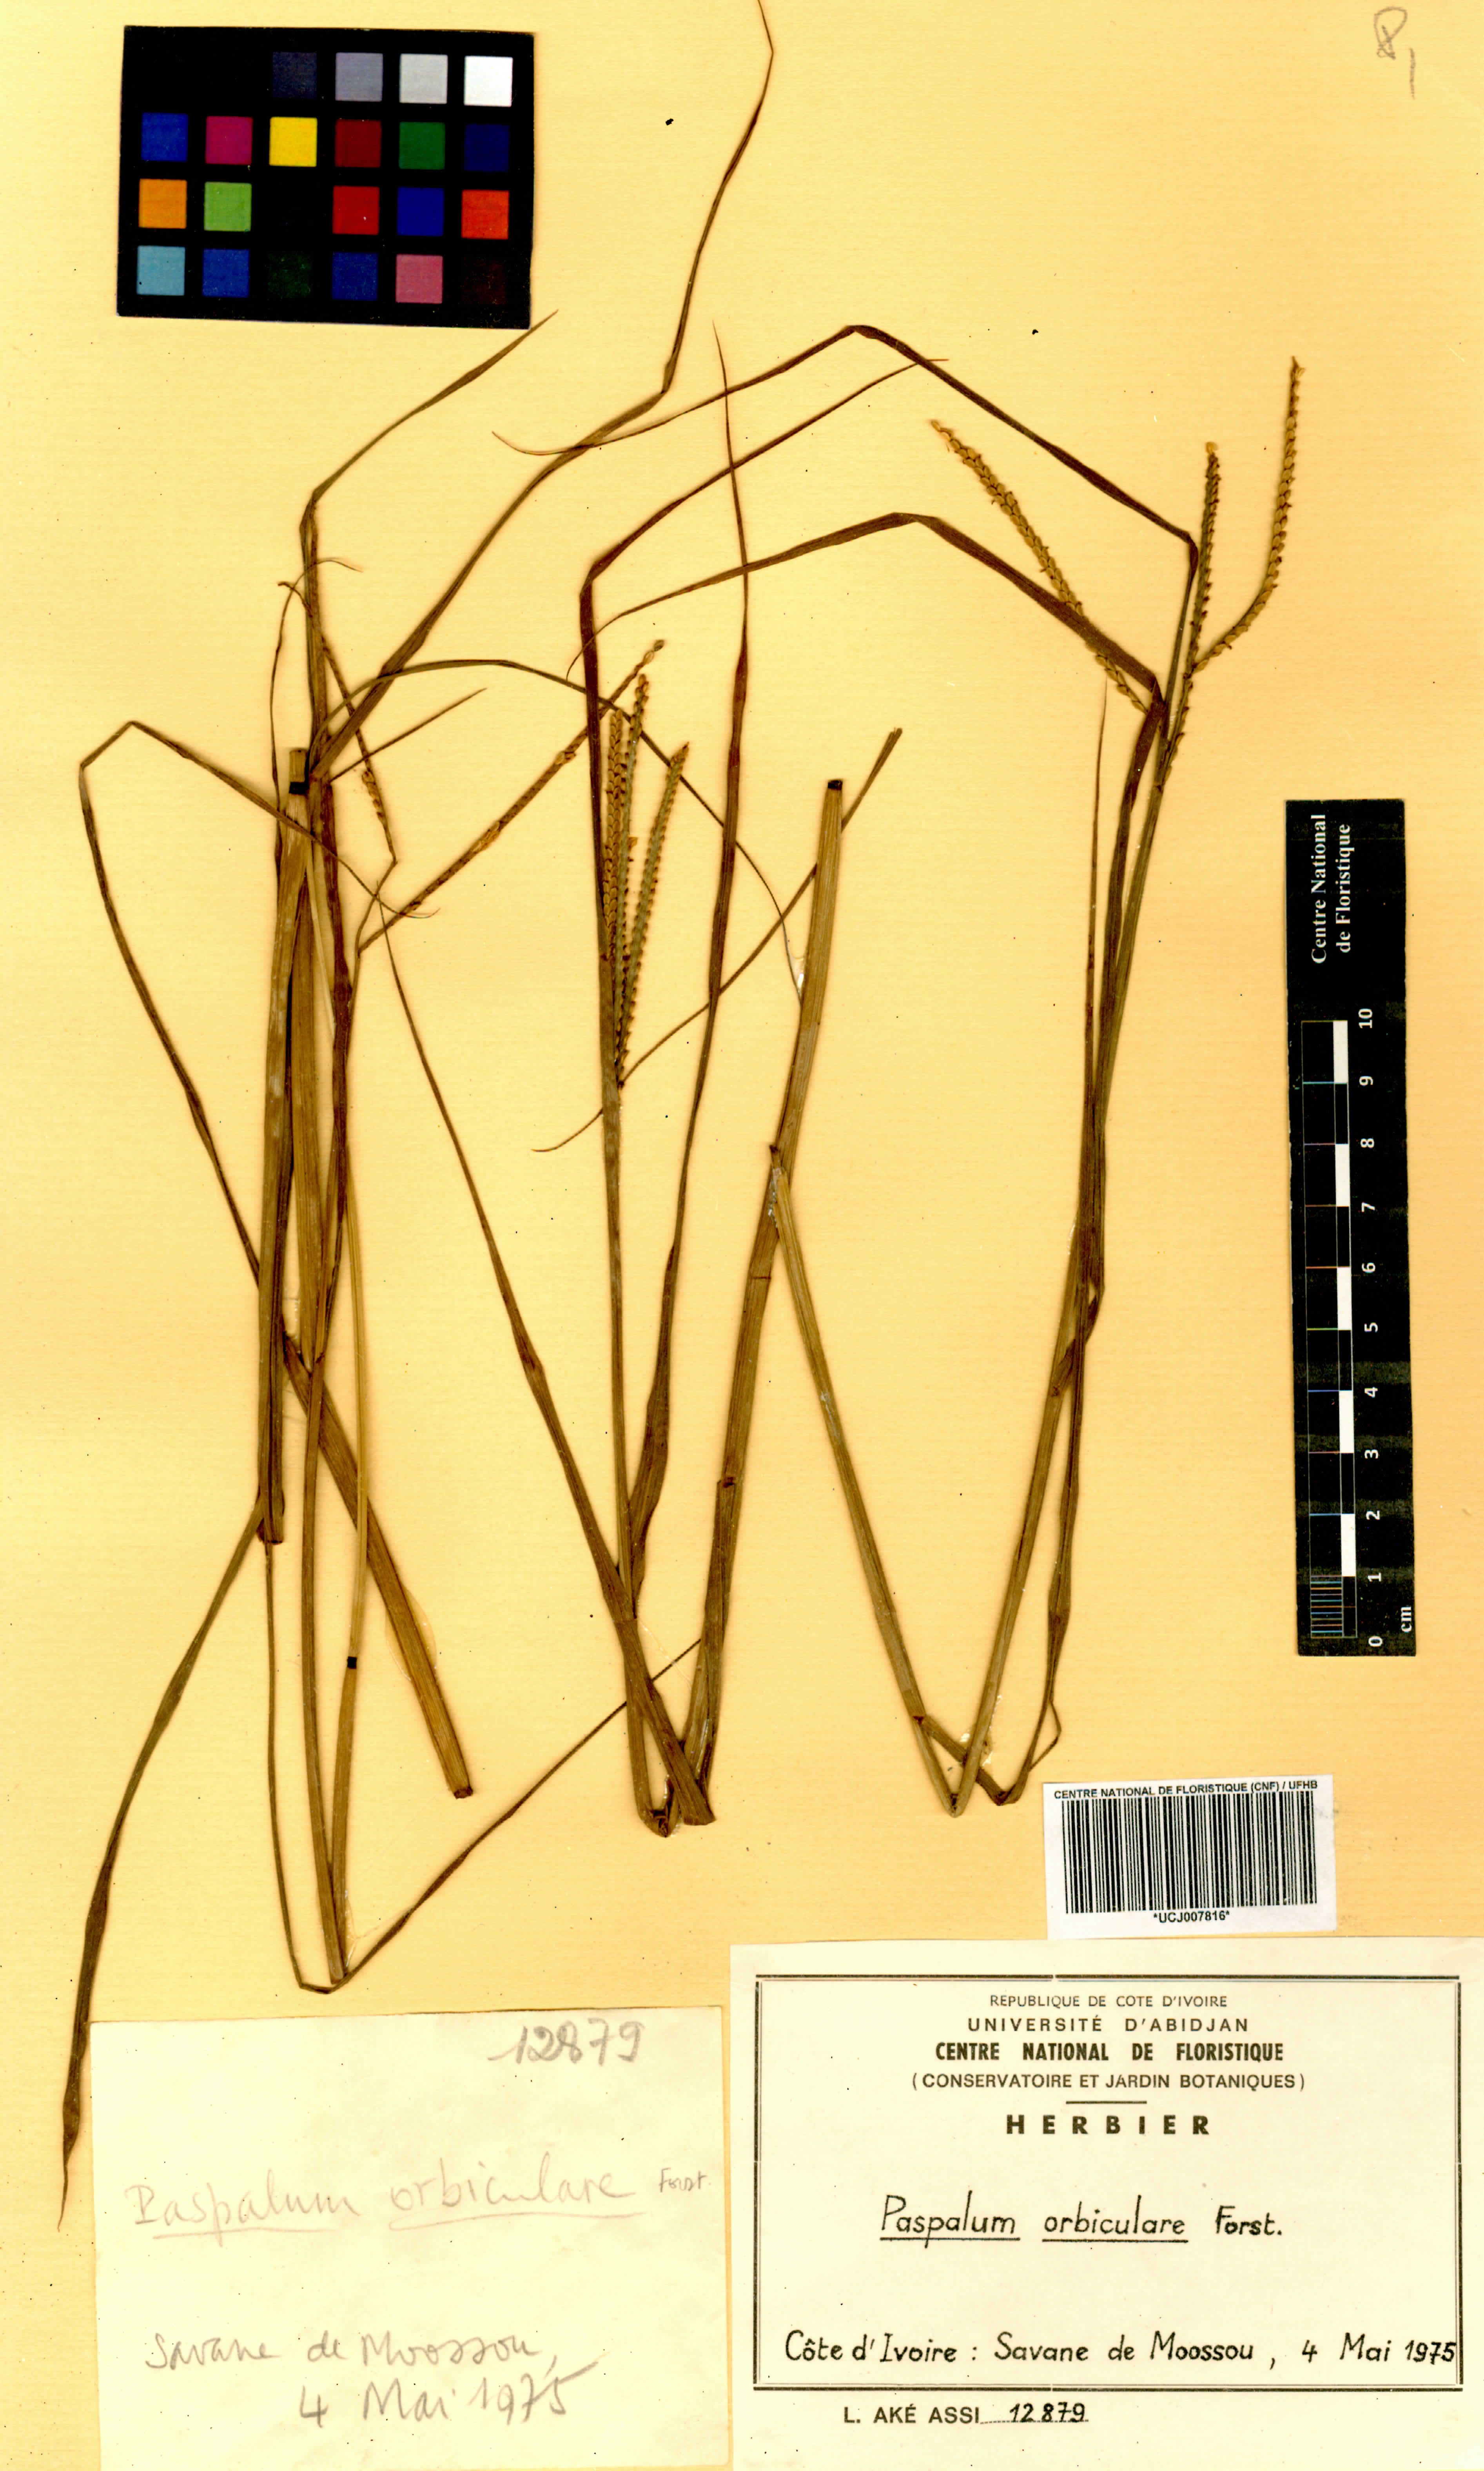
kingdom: Plantae
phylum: Tracheophyta
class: Liliopsida
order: Poales
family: Poaceae
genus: Paspalum
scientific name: Paspalum orbiculare
